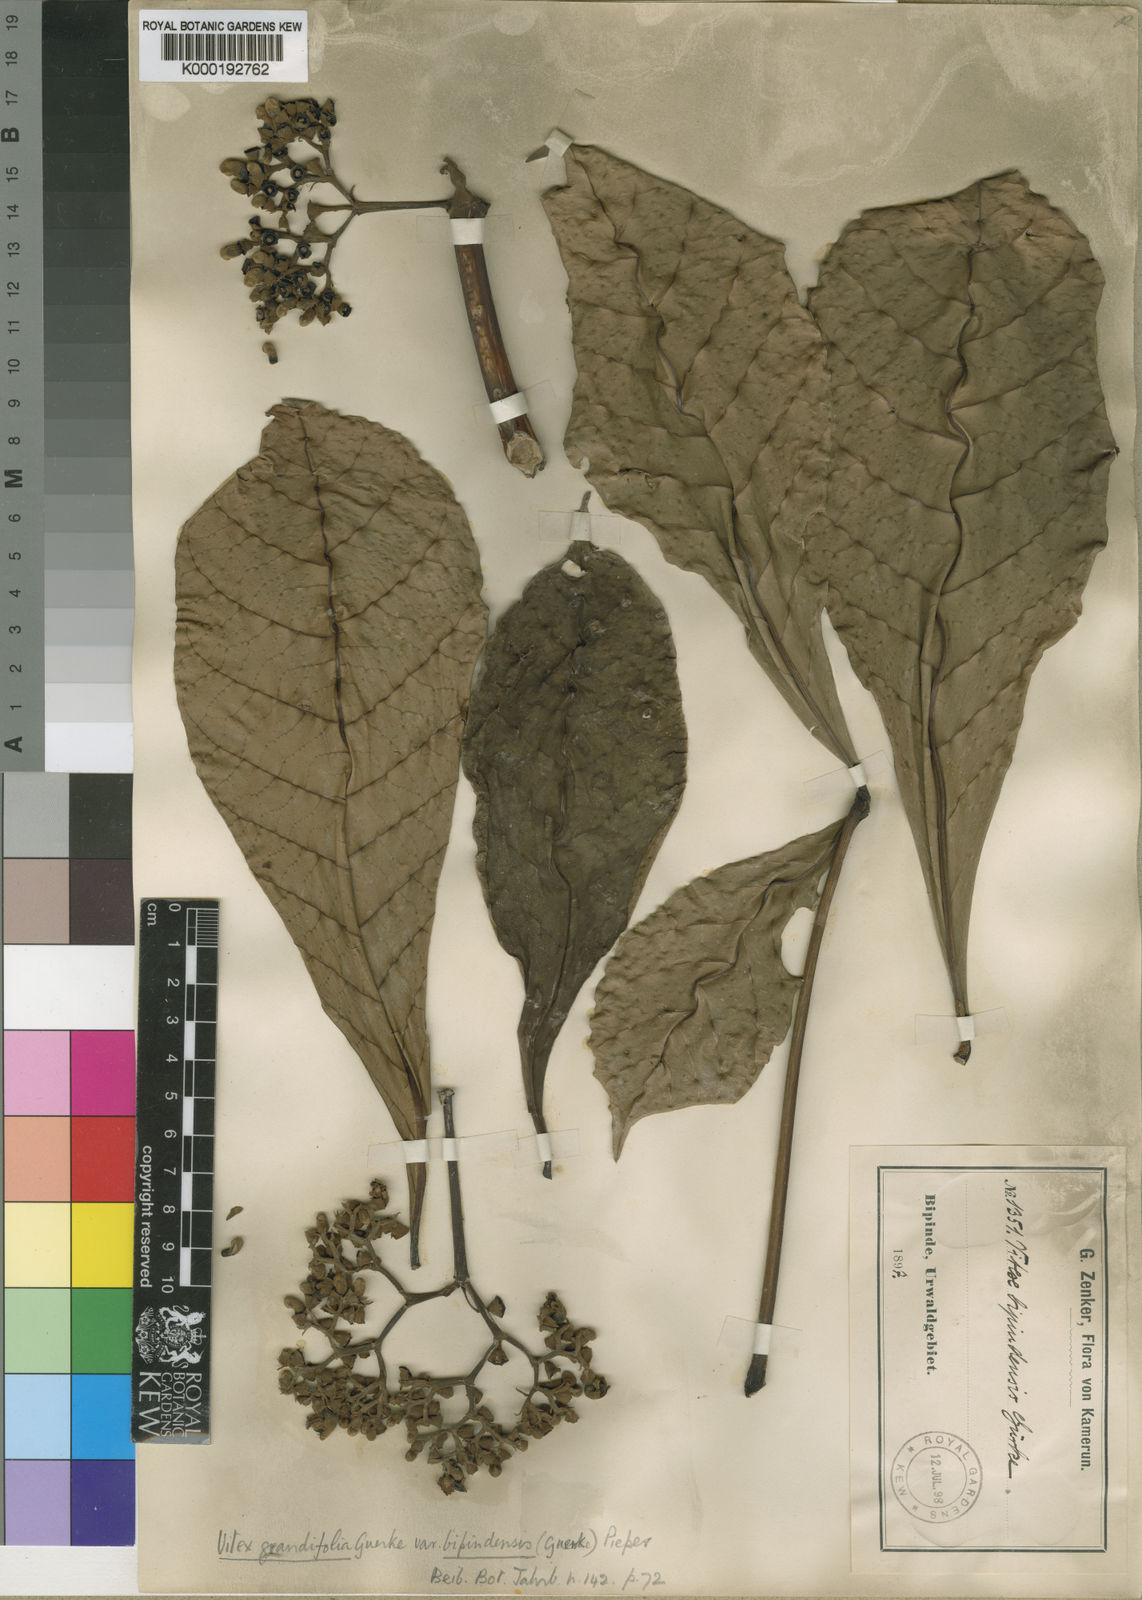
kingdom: Plantae
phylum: Tracheophyta
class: Magnoliopsida
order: Lamiales
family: Lamiaceae
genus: Vitex
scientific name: Vitex
